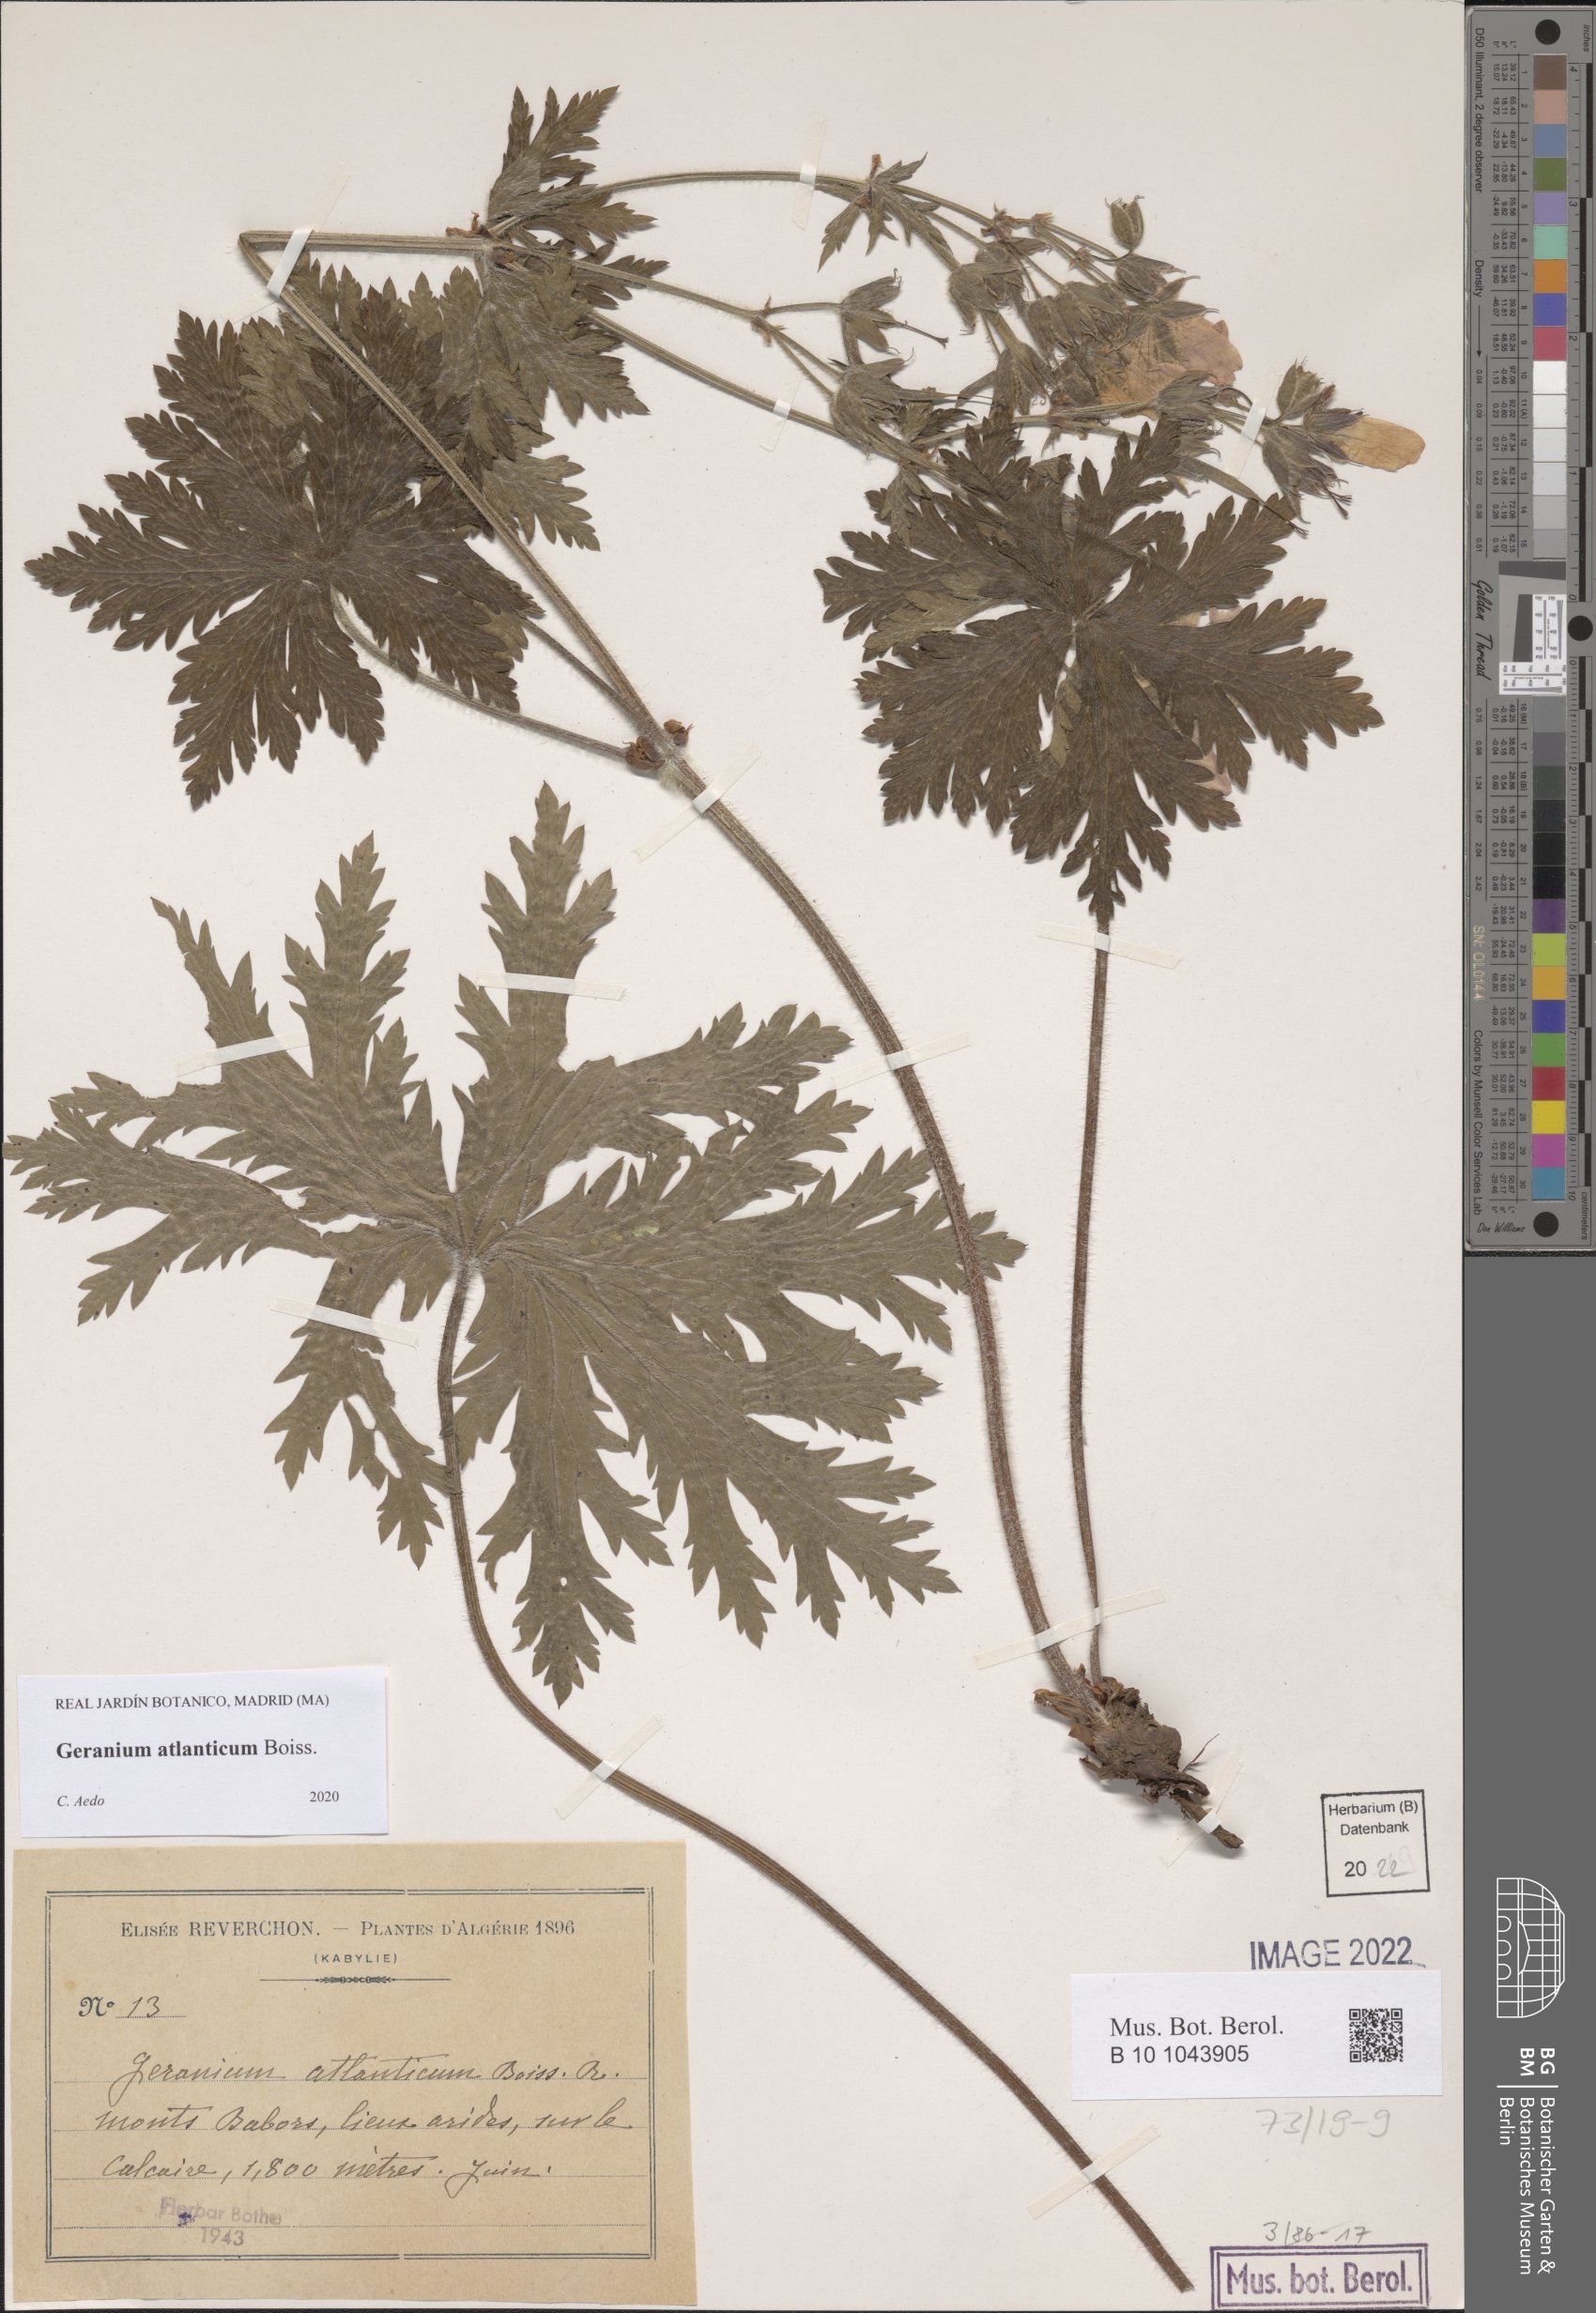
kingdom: Plantae
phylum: Tracheophyta
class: Magnoliopsida
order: Geraniales
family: Geraniaceae
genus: Geranium
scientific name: Geranium atlanticum
